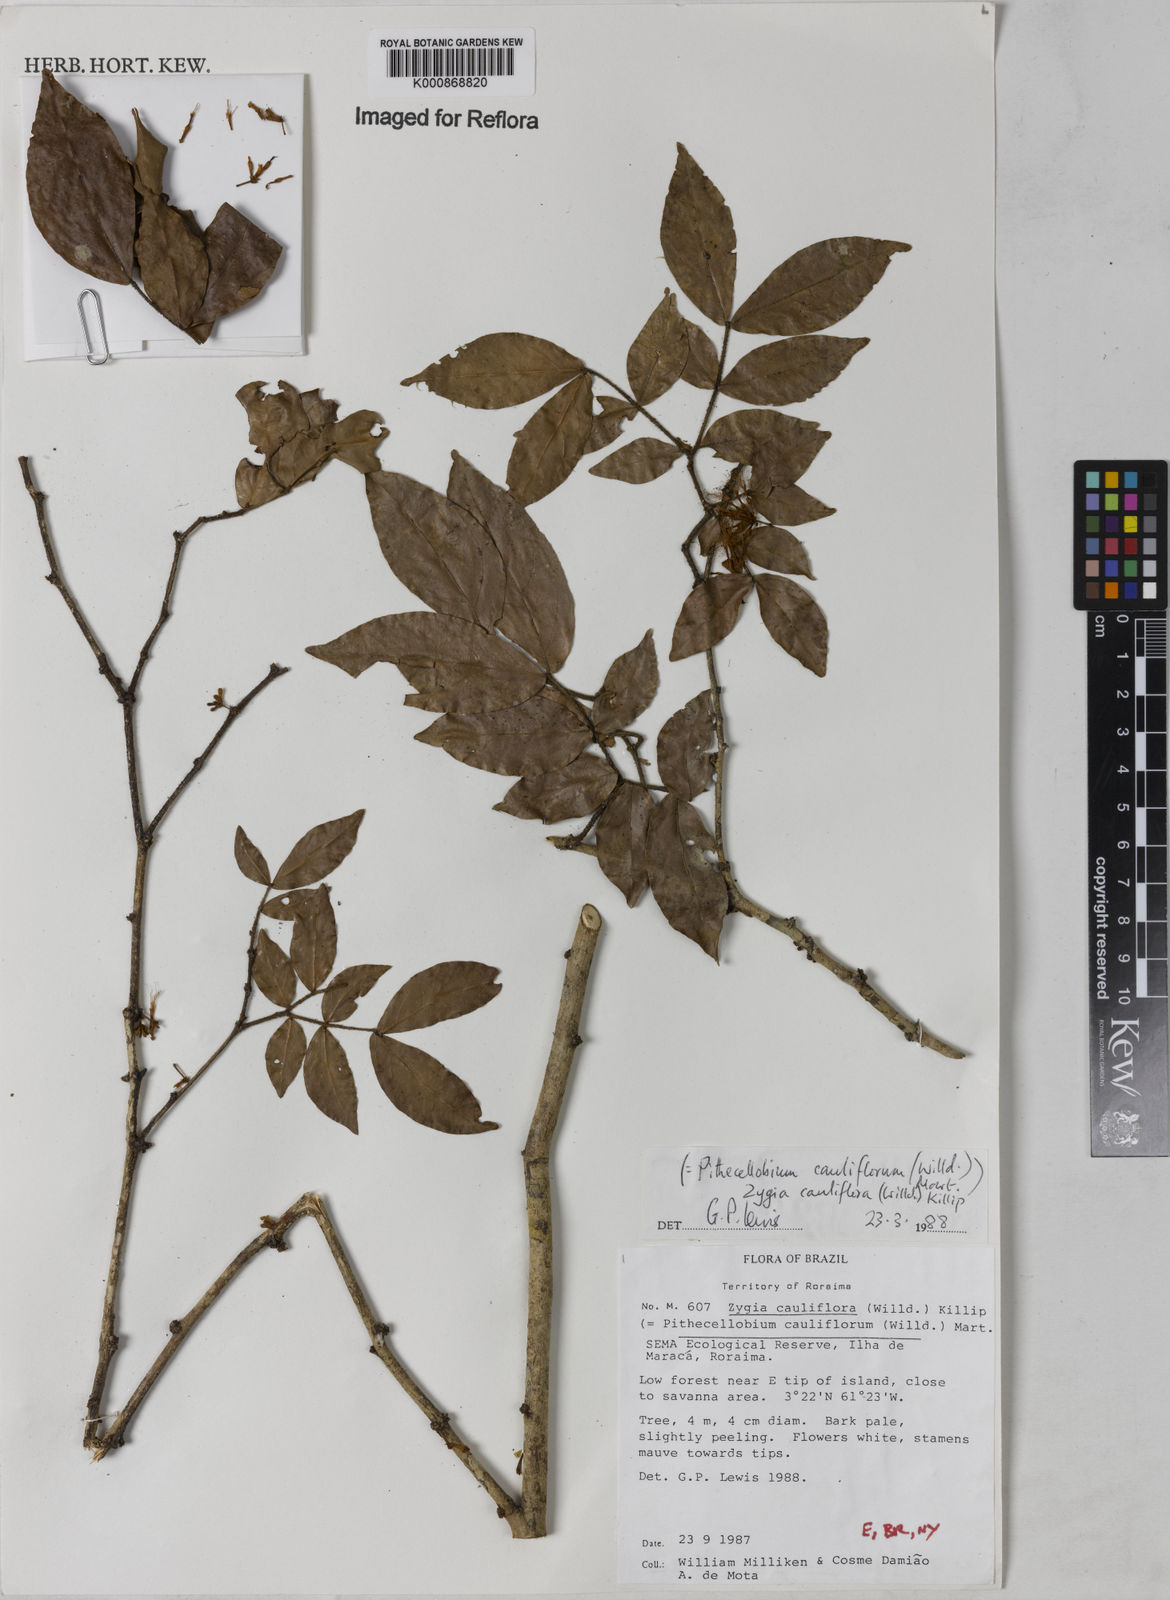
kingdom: Plantae
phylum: Tracheophyta
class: Magnoliopsida
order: Fabales
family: Fabaceae
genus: Zygia
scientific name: Zygia
